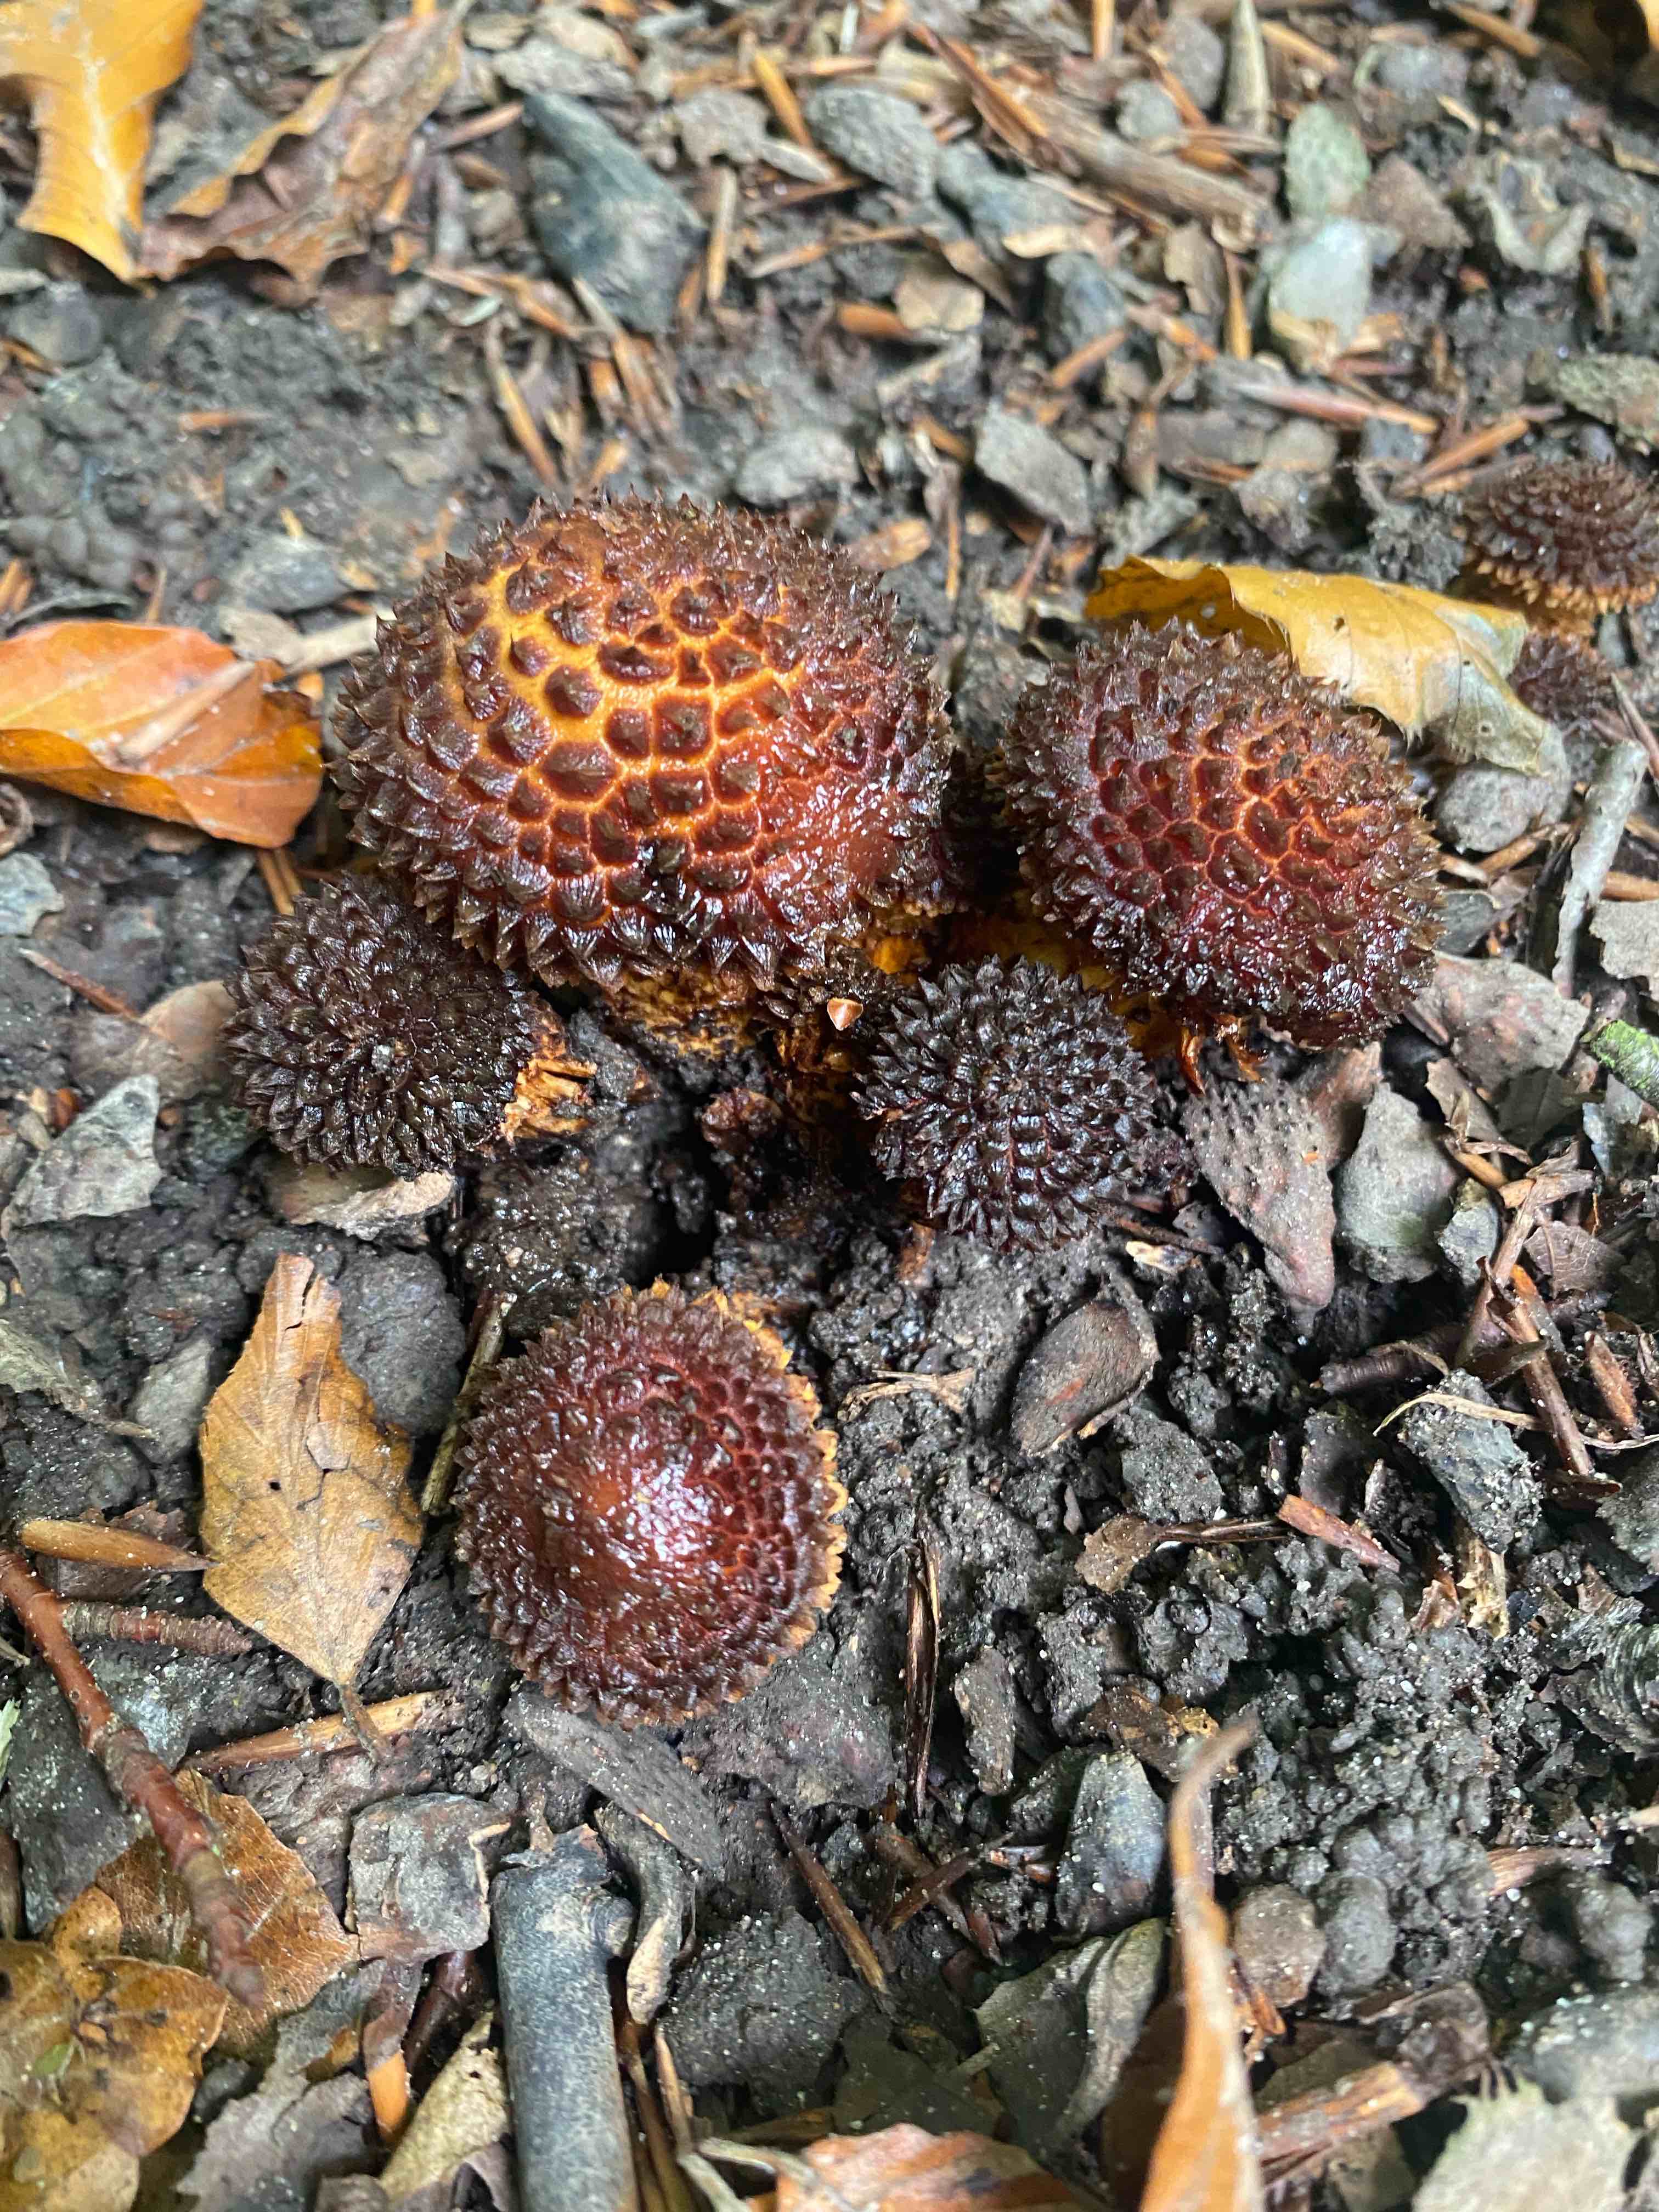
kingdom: Fungi
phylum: Basidiomycota
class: Agaricomycetes
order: Agaricales
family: Strophariaceae
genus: Pholiota
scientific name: Pholiota
